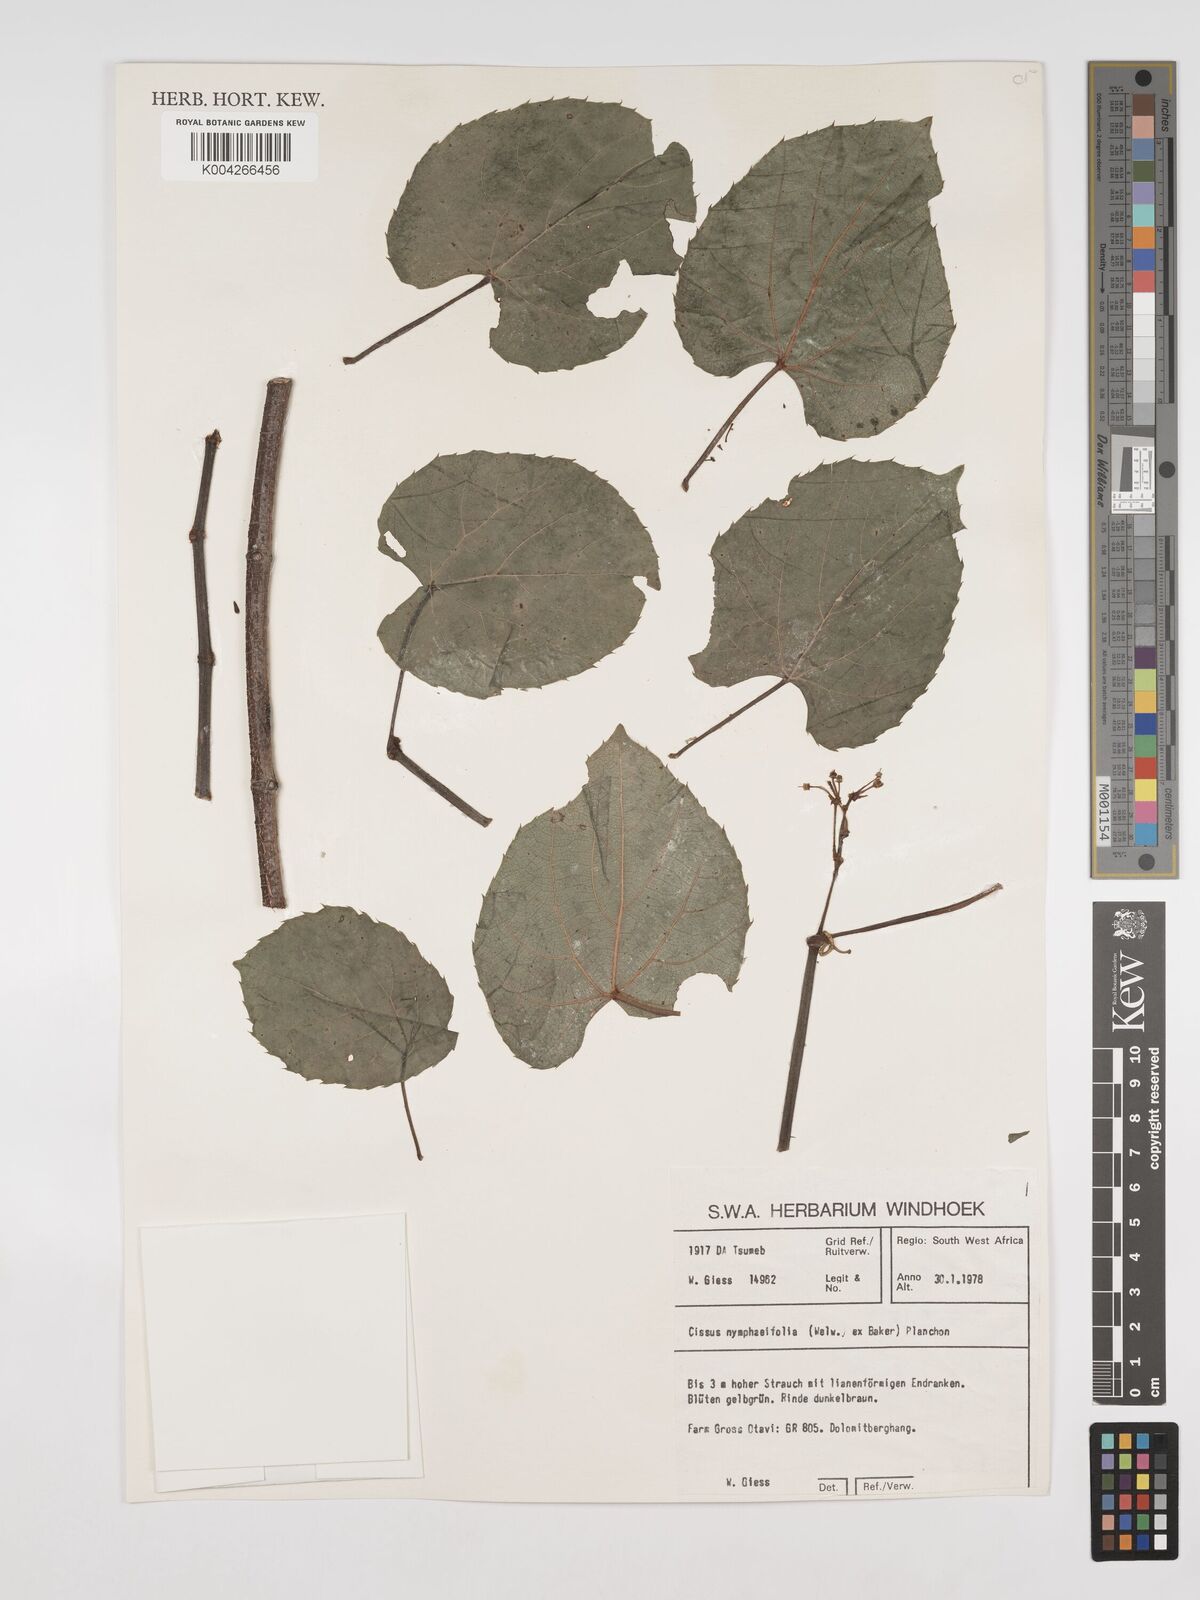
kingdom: Plantae
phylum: Tracheophyta
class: Magnoliopsida
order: Vitales
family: Vitaceae
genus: Cissus
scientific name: Cissus nymphaeifolia
